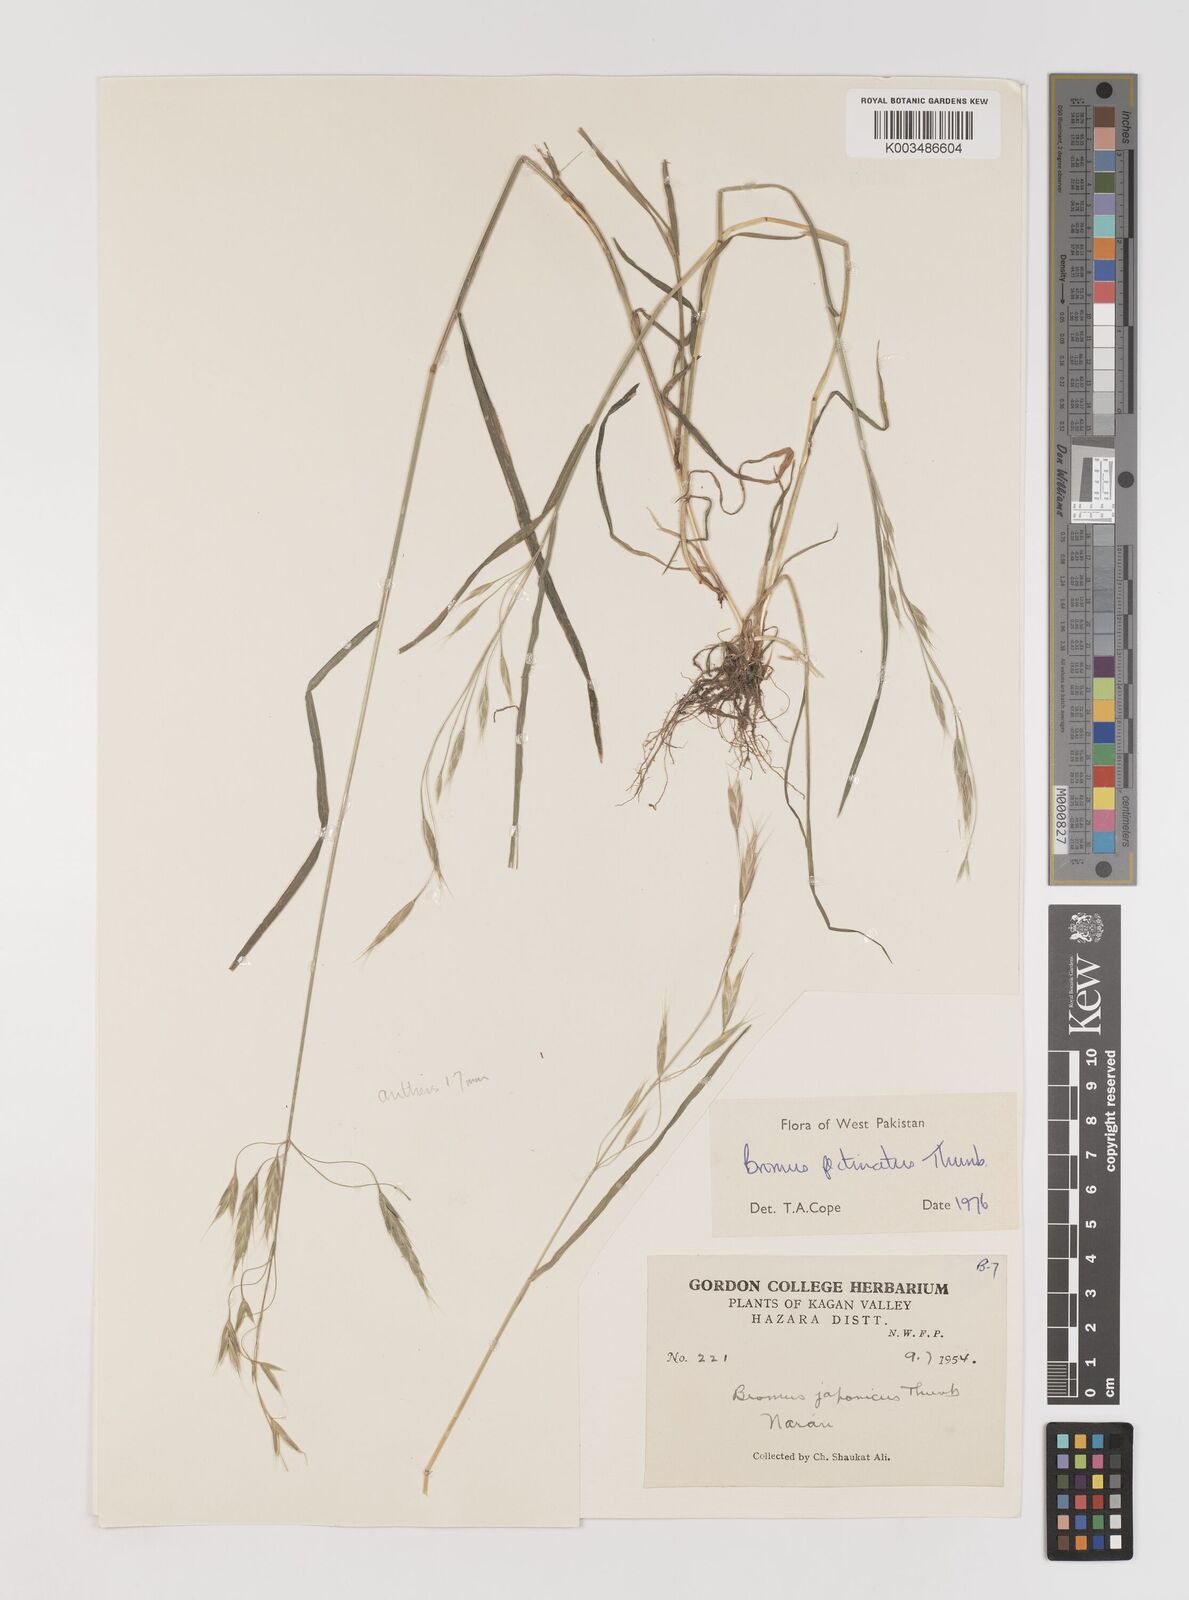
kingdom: Plantae
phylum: Tracheophyta
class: Liliopsida
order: Poales
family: Poaceae
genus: Bromus
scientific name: Bromus pectinatus
